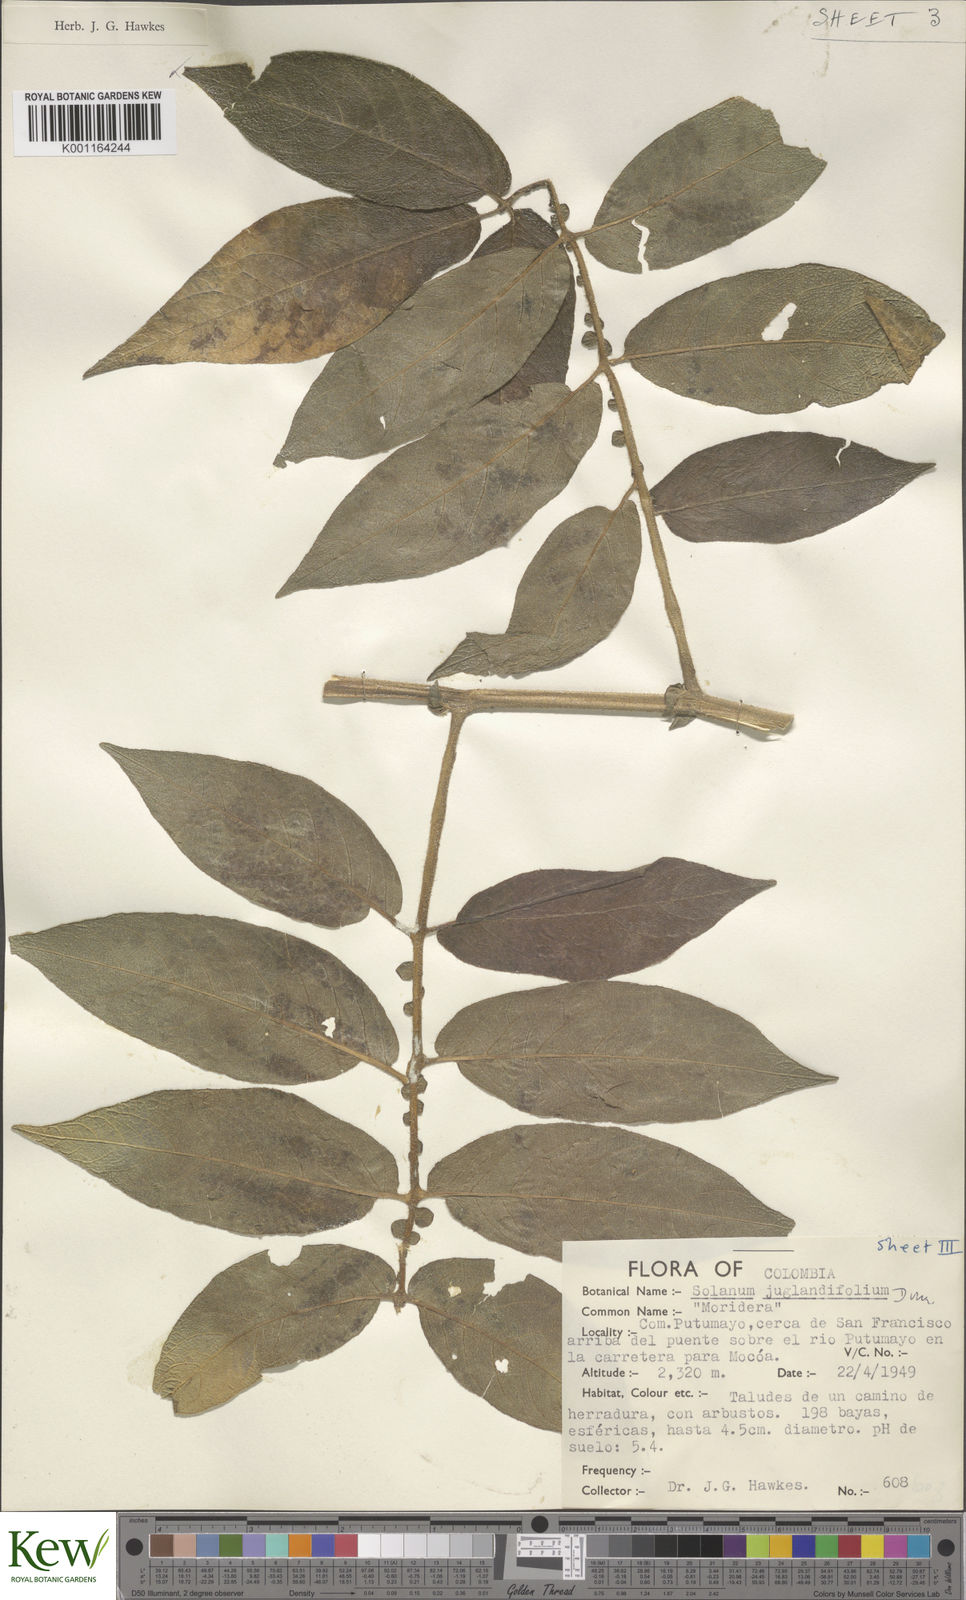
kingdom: Plantae
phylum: Tracheophyta
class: Magnoliopsida
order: Solanales
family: Solanaceae
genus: Solanum
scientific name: Solanum juglandifolium
